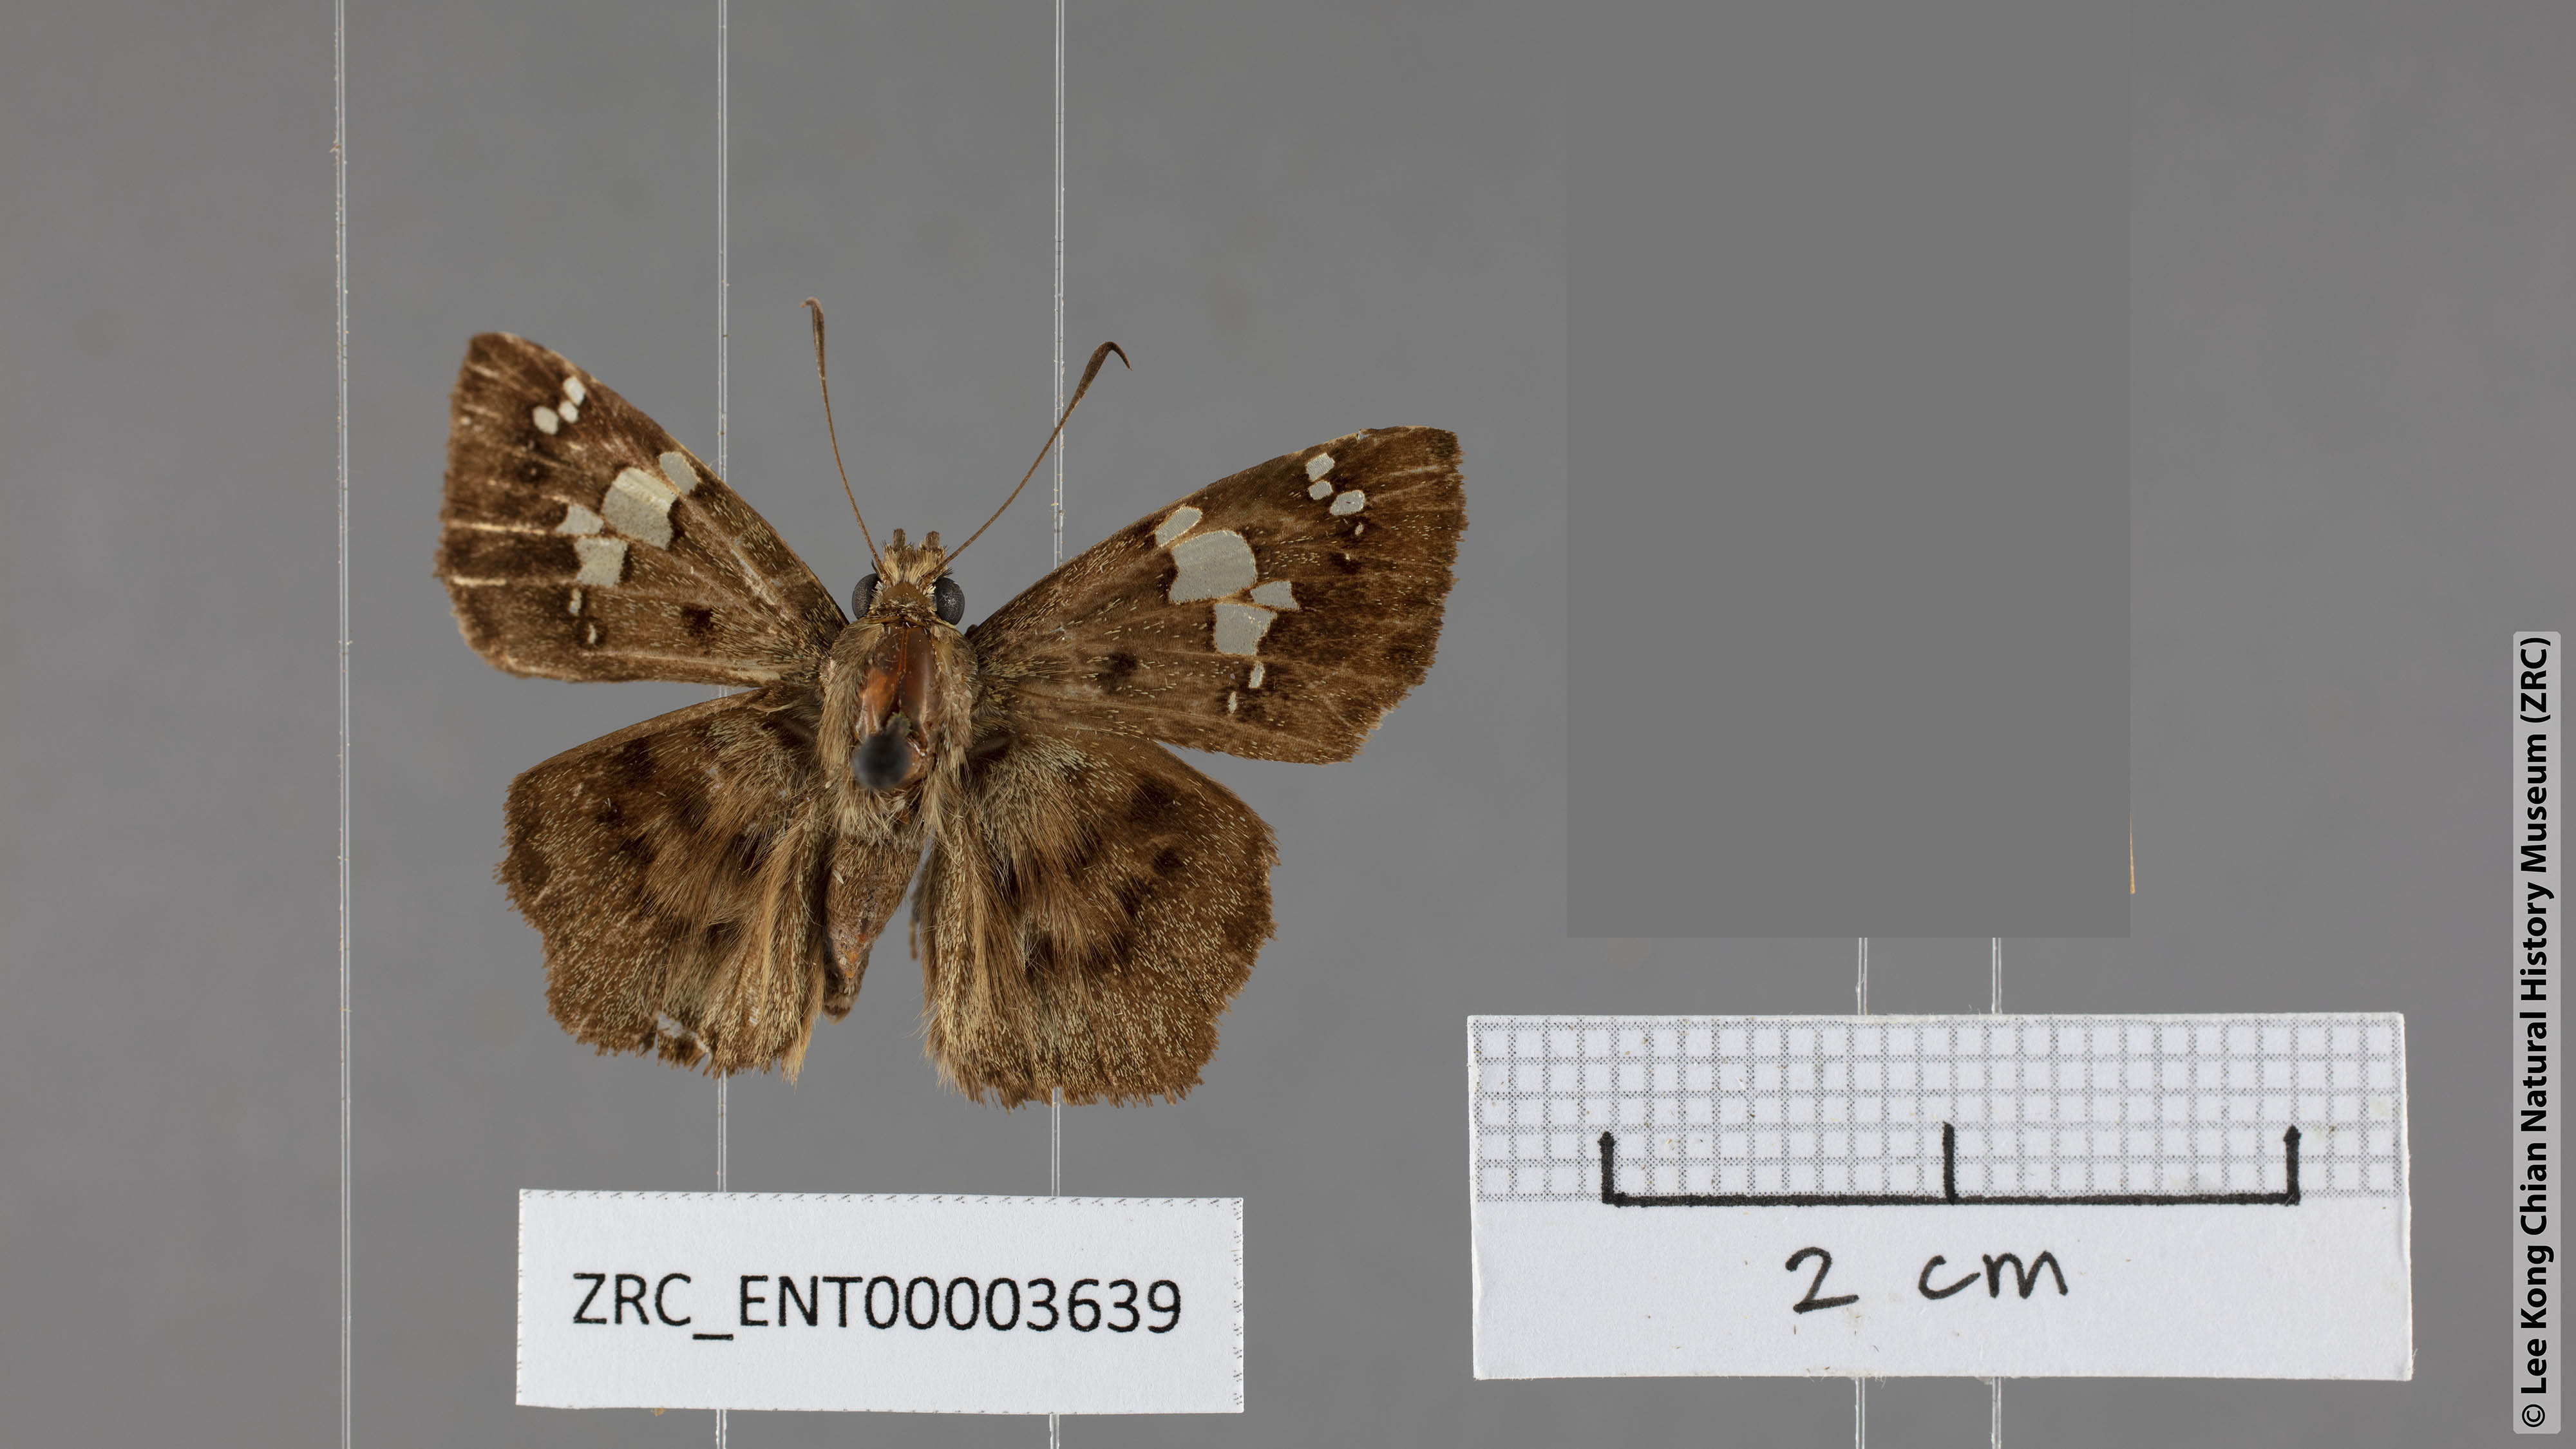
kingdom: Animalia
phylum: Arthropoda
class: Insecta
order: Lepidoptera
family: Hesperiidae
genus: Coladenia
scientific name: Coladenia
